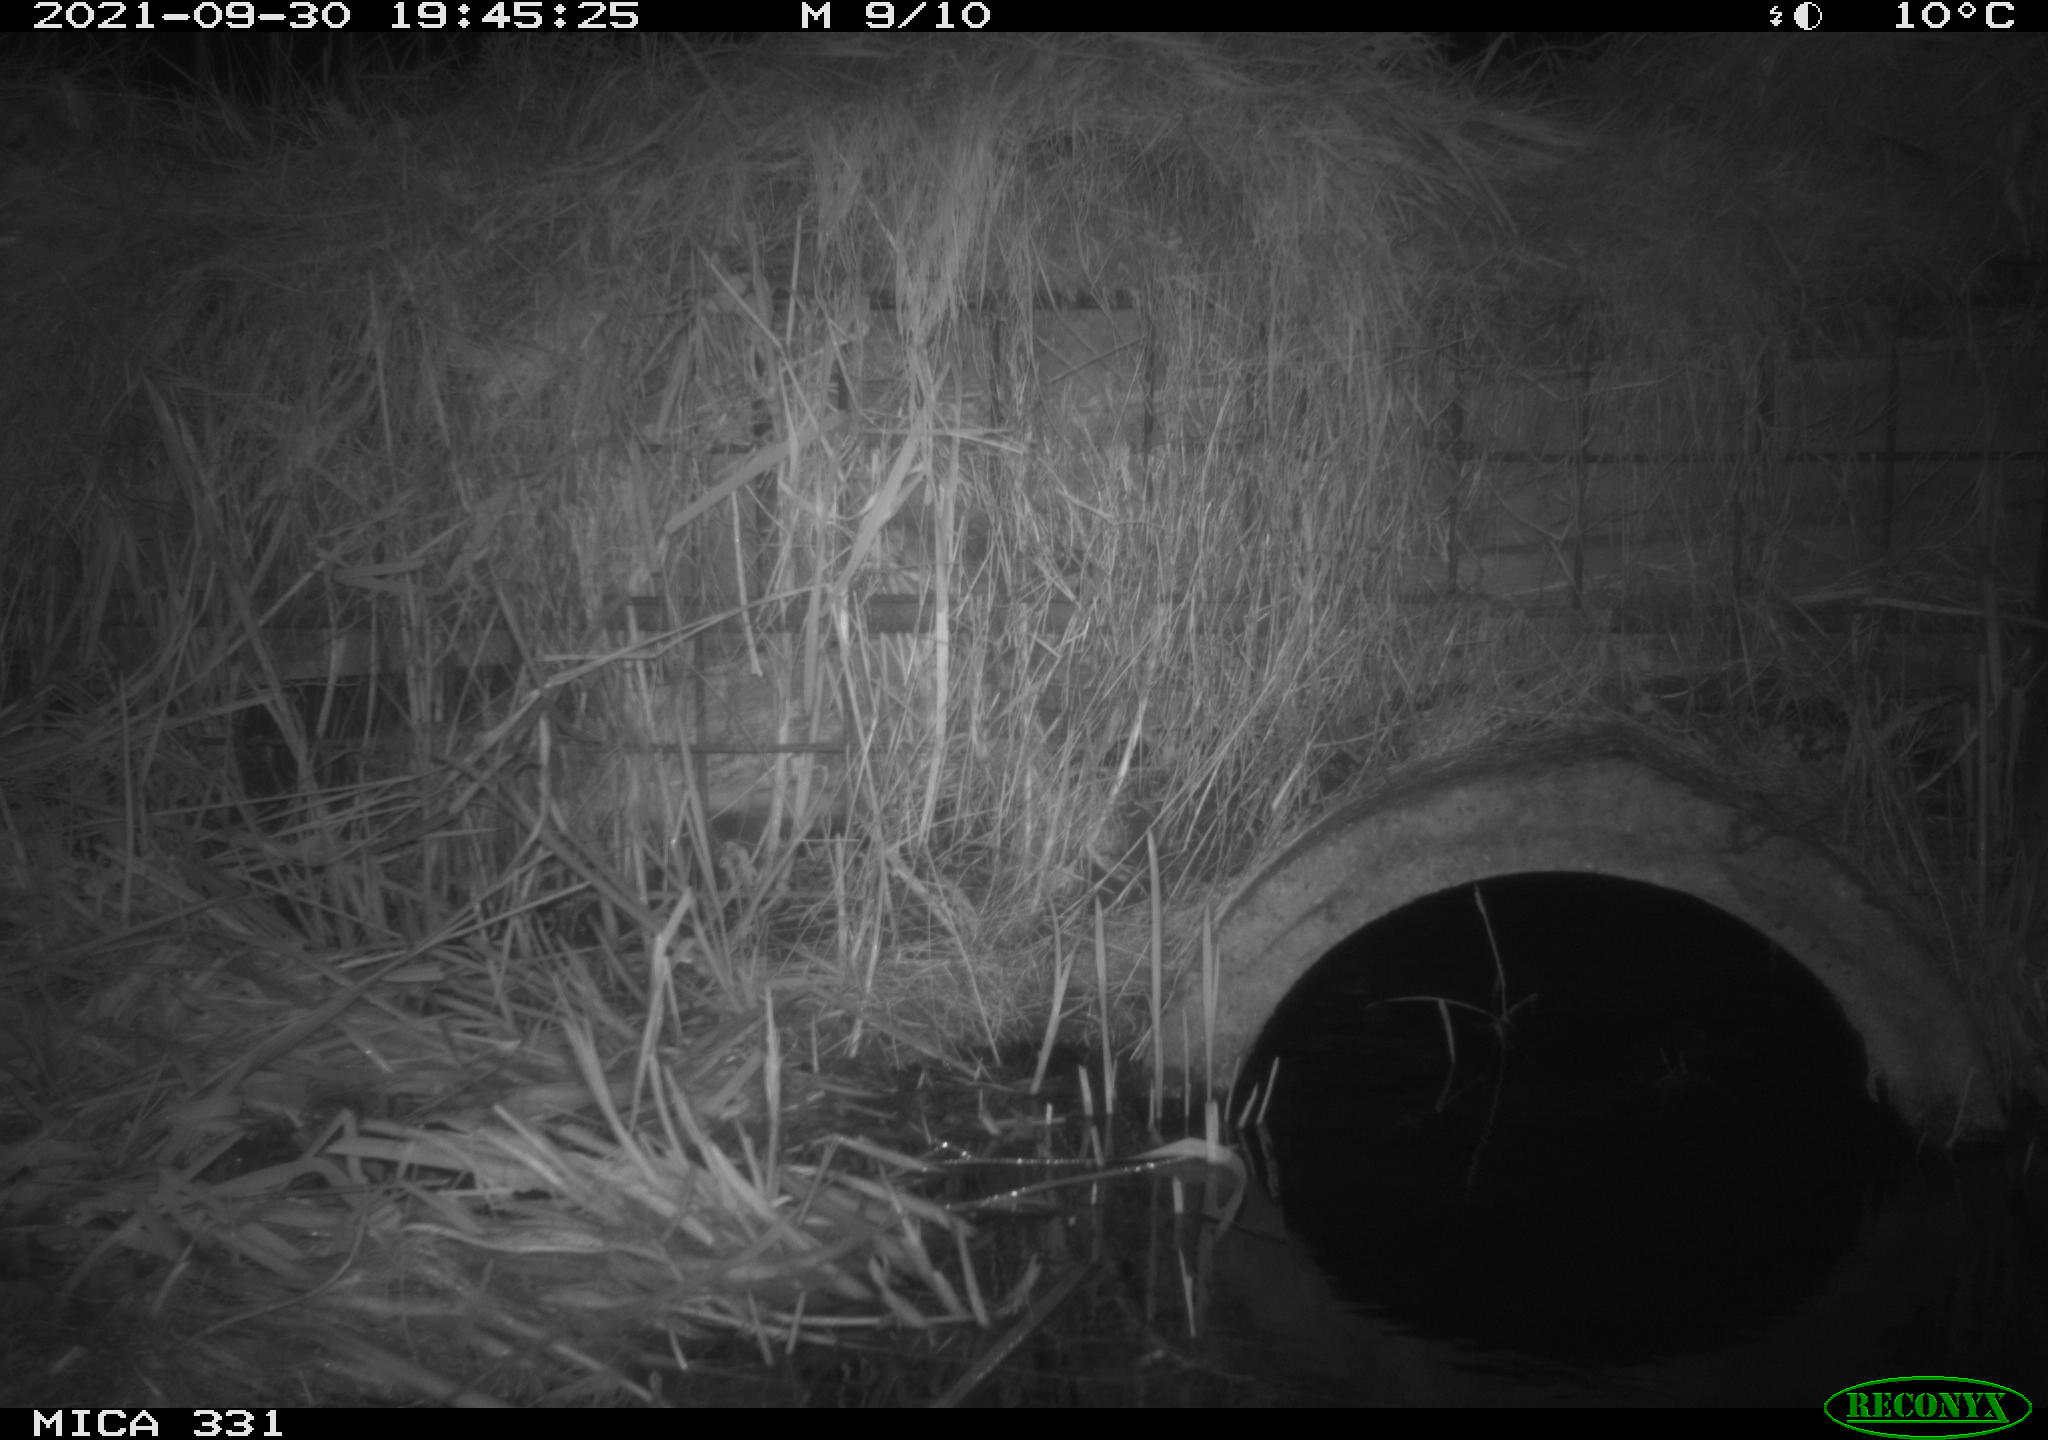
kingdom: Animalia
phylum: Chordata
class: Mammalia
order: Rodentia
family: Muridae
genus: Rattus
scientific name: Rattus norvegicus
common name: Brown rat
